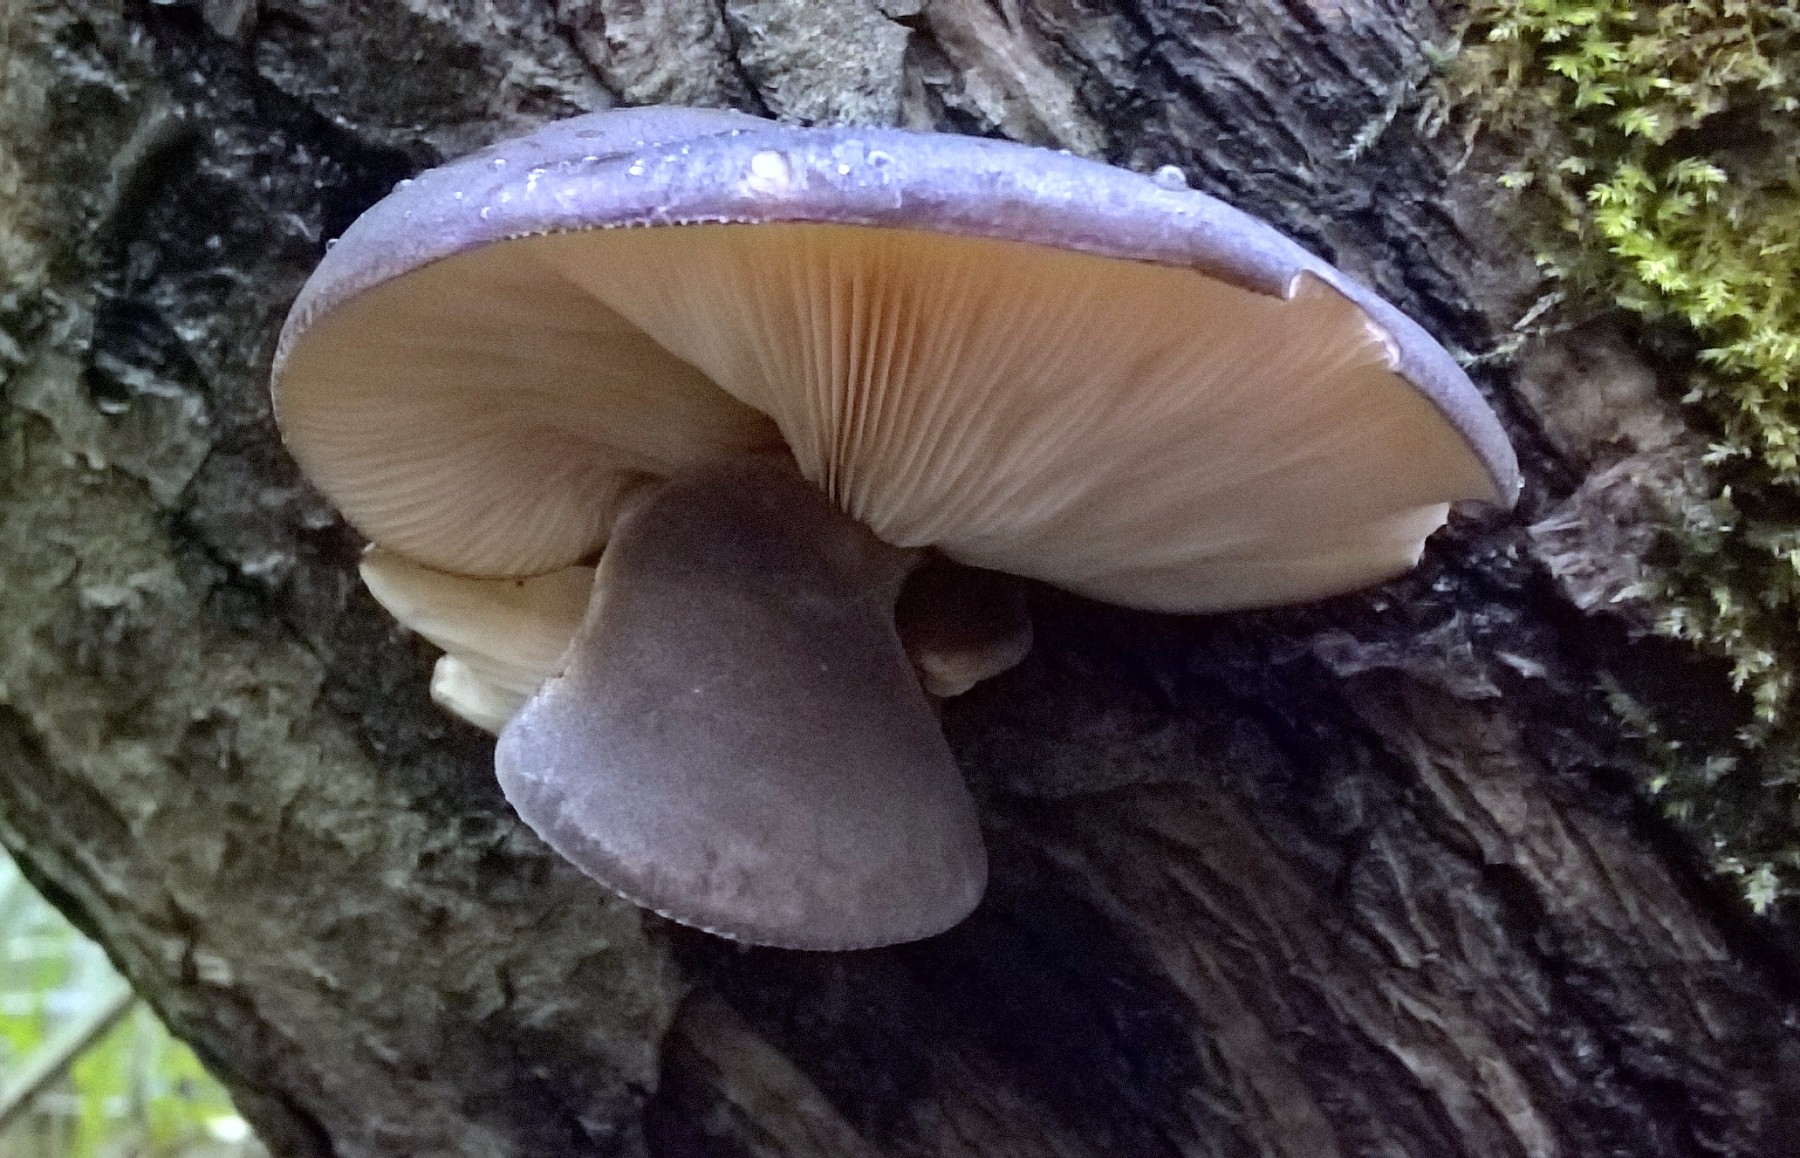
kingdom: Fungi
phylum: Basidiomycota
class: Agaricomycetes
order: Agaricales
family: Pleurotaceae
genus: Pleurotus
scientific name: Pleurotus ostreatus
